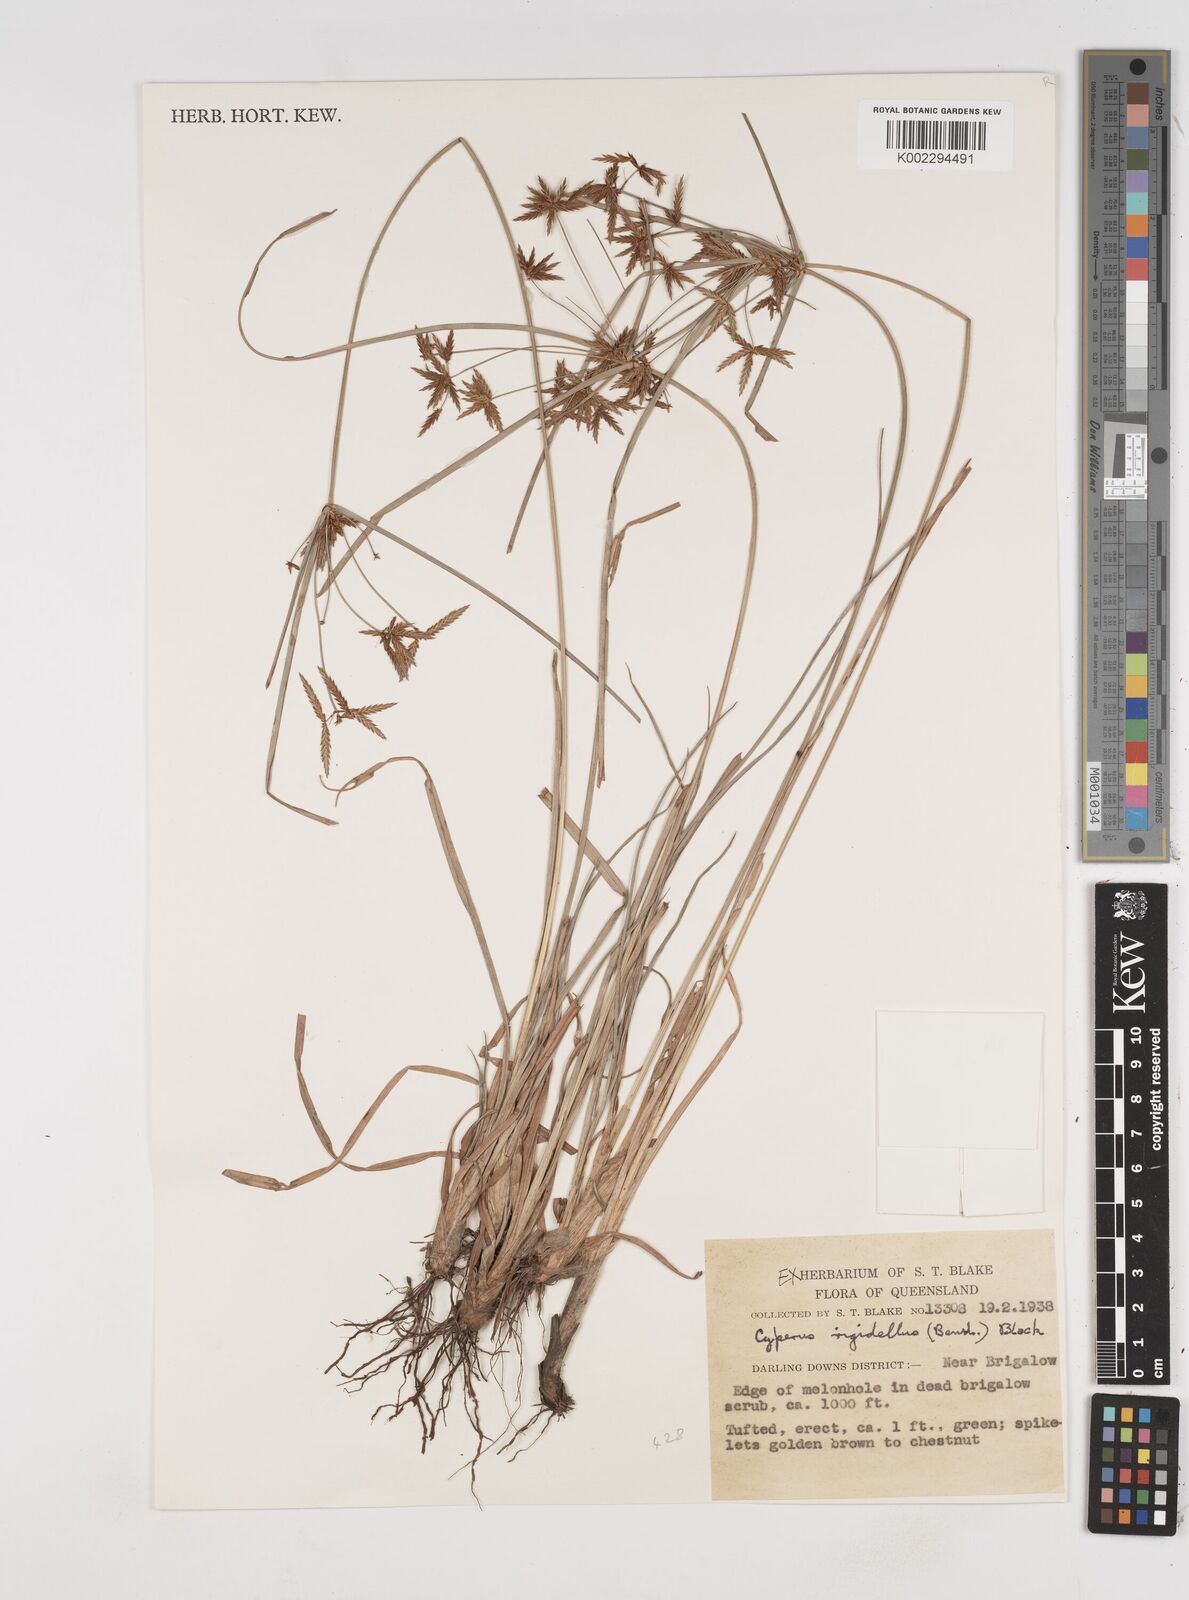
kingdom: Plantae
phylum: Tracheophyta
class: Liliopsida
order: Poales
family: Cyperaceae
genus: Cyperus
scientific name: Cyperus rigidellus
